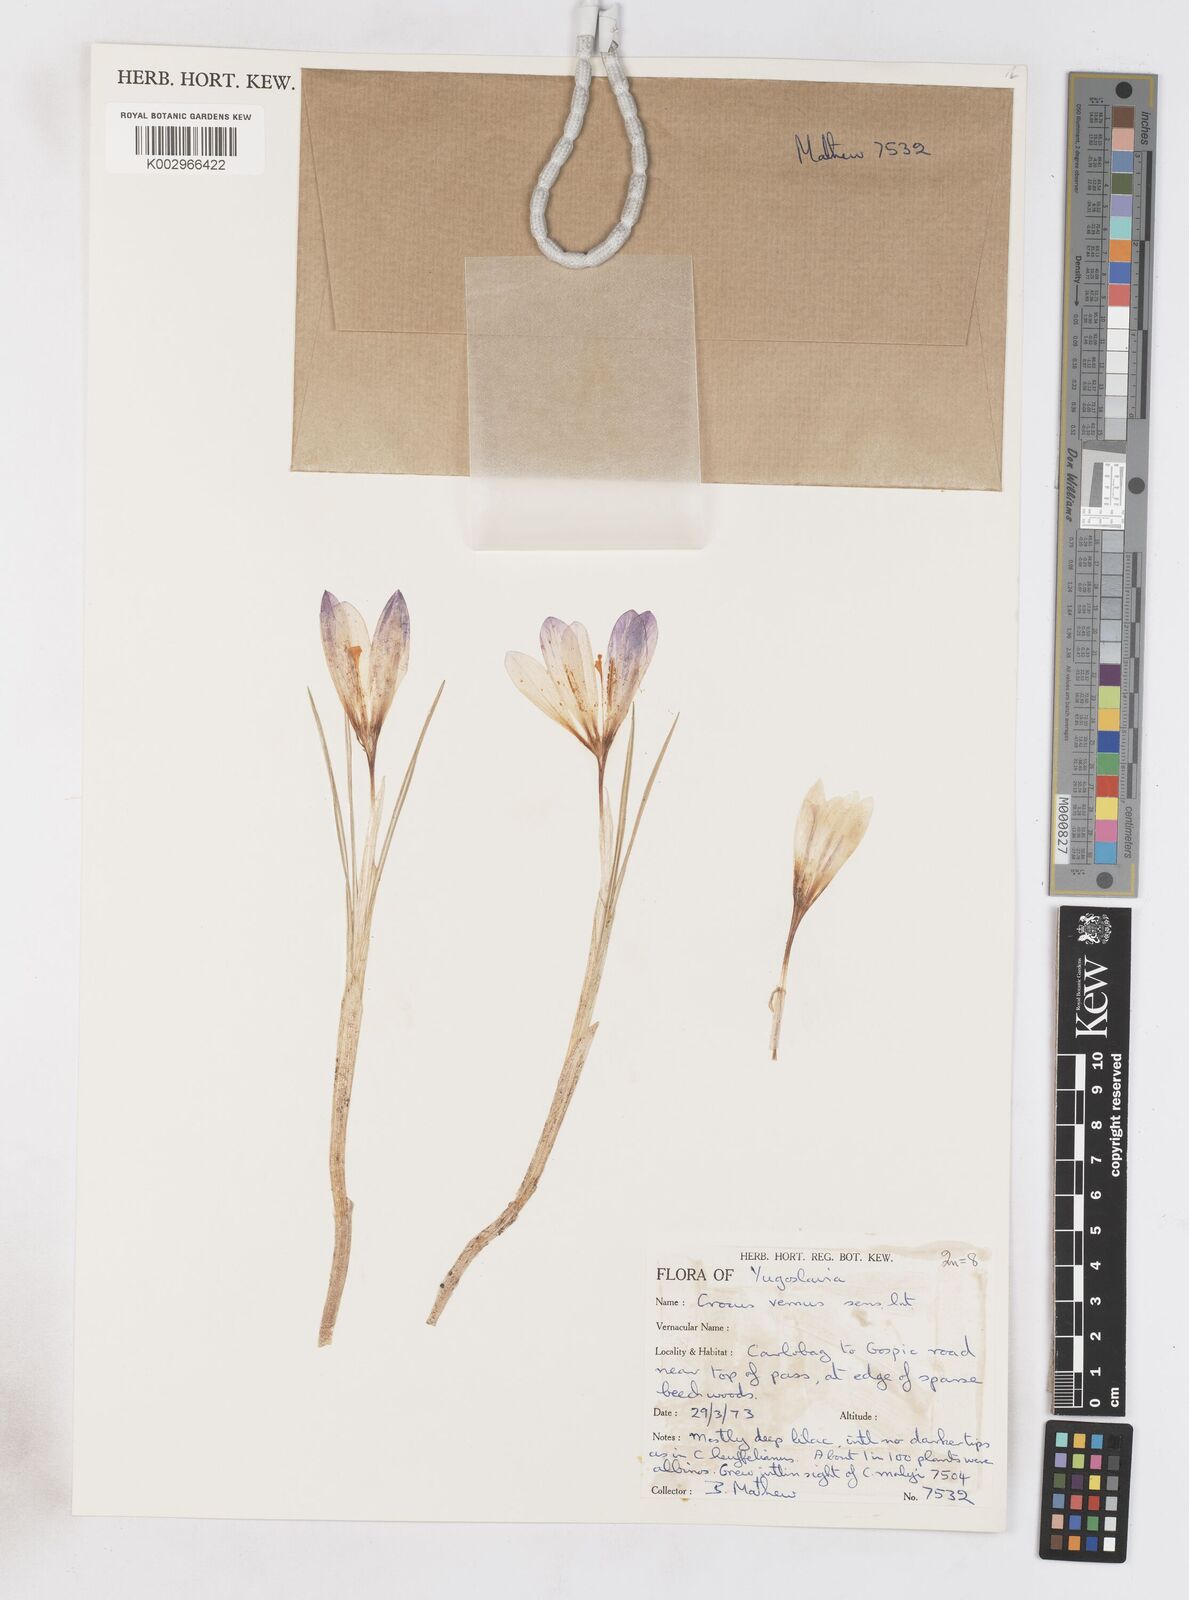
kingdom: Plantae
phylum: Tracheophyta
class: Liliopsida
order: Asparagales
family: Iridaceae
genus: Crocus
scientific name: Crocus vernus
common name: Spring crocus
